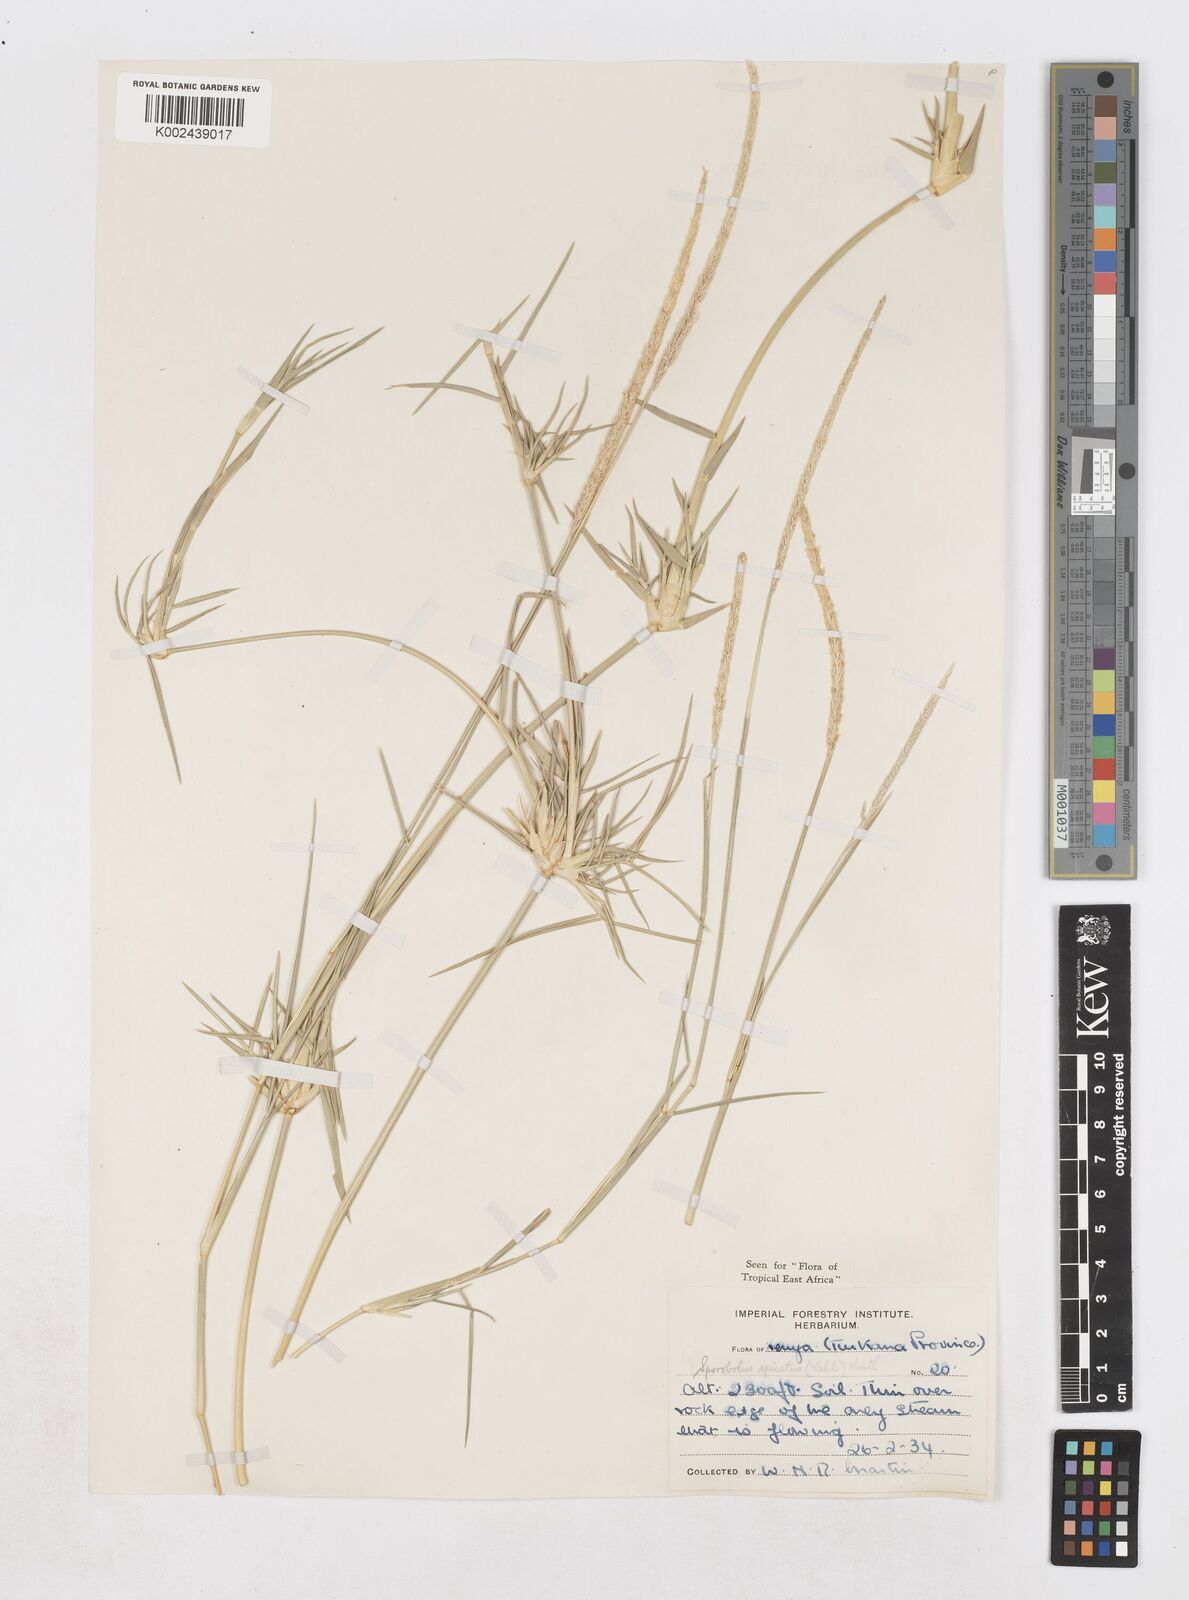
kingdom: Plantae
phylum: Tracheophyta
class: Liliopsida
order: Poales
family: Poaceae
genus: Sporobolus
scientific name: Sporobolus spicatus
